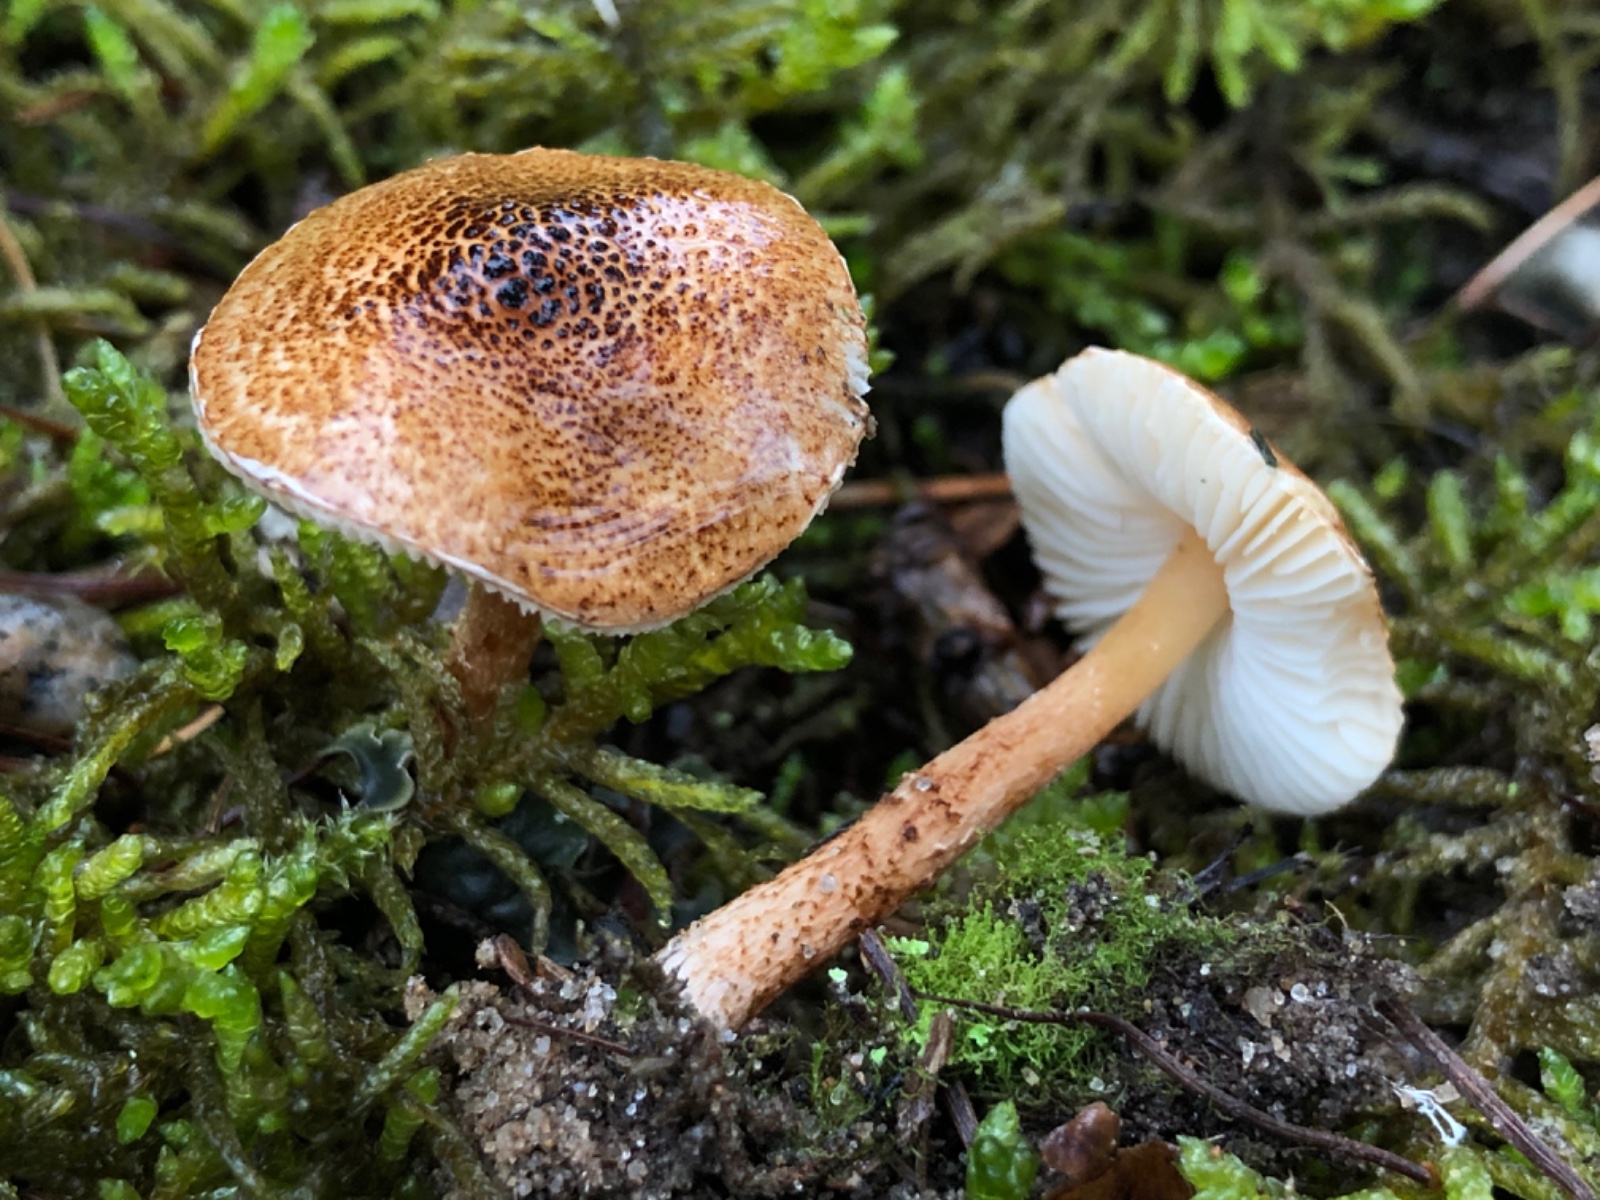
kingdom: Fungi
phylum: Basidiomycota
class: Agaricomycetes
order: Agaricales
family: Agaricaceae
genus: Lepiota
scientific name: Lepiota castanea
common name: kastaniebrun parasolhat
